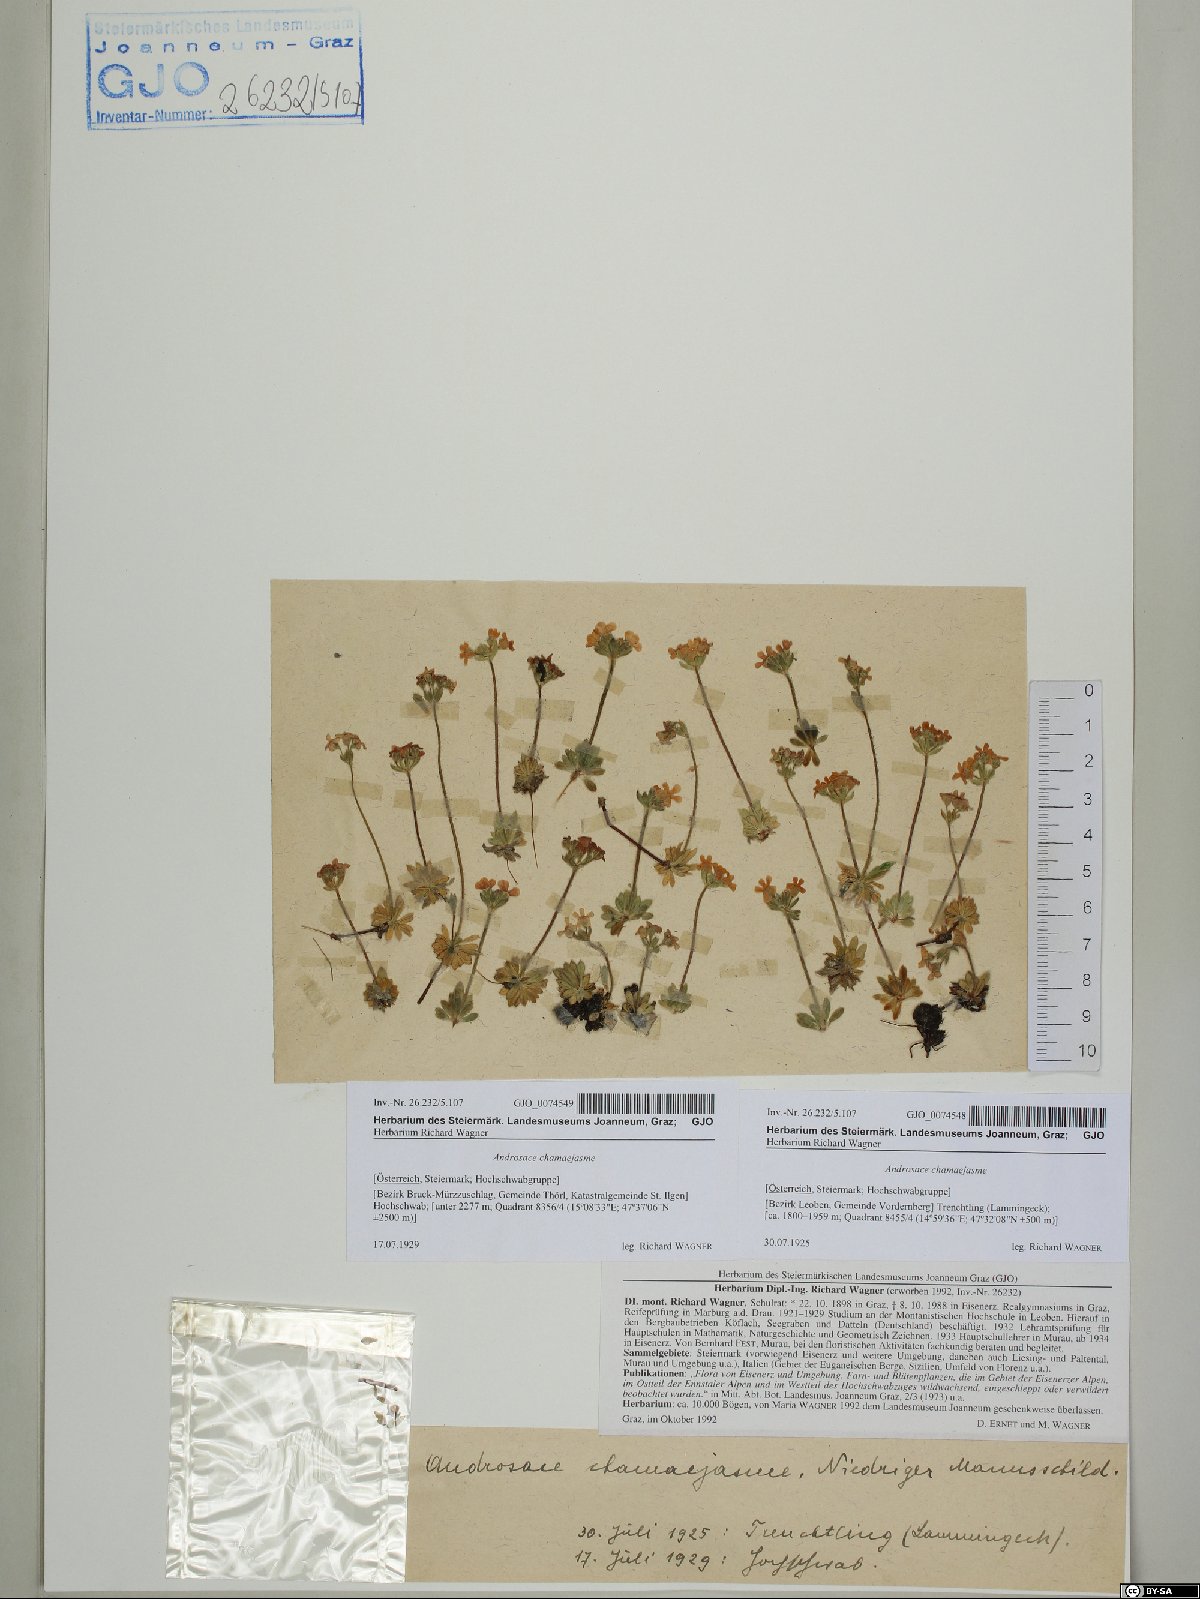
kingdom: Plantae
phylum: Tracheophyta
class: Magnoliopsida
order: Ericales
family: Primulaceae
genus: Androsace
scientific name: Androsace chamaejasme
